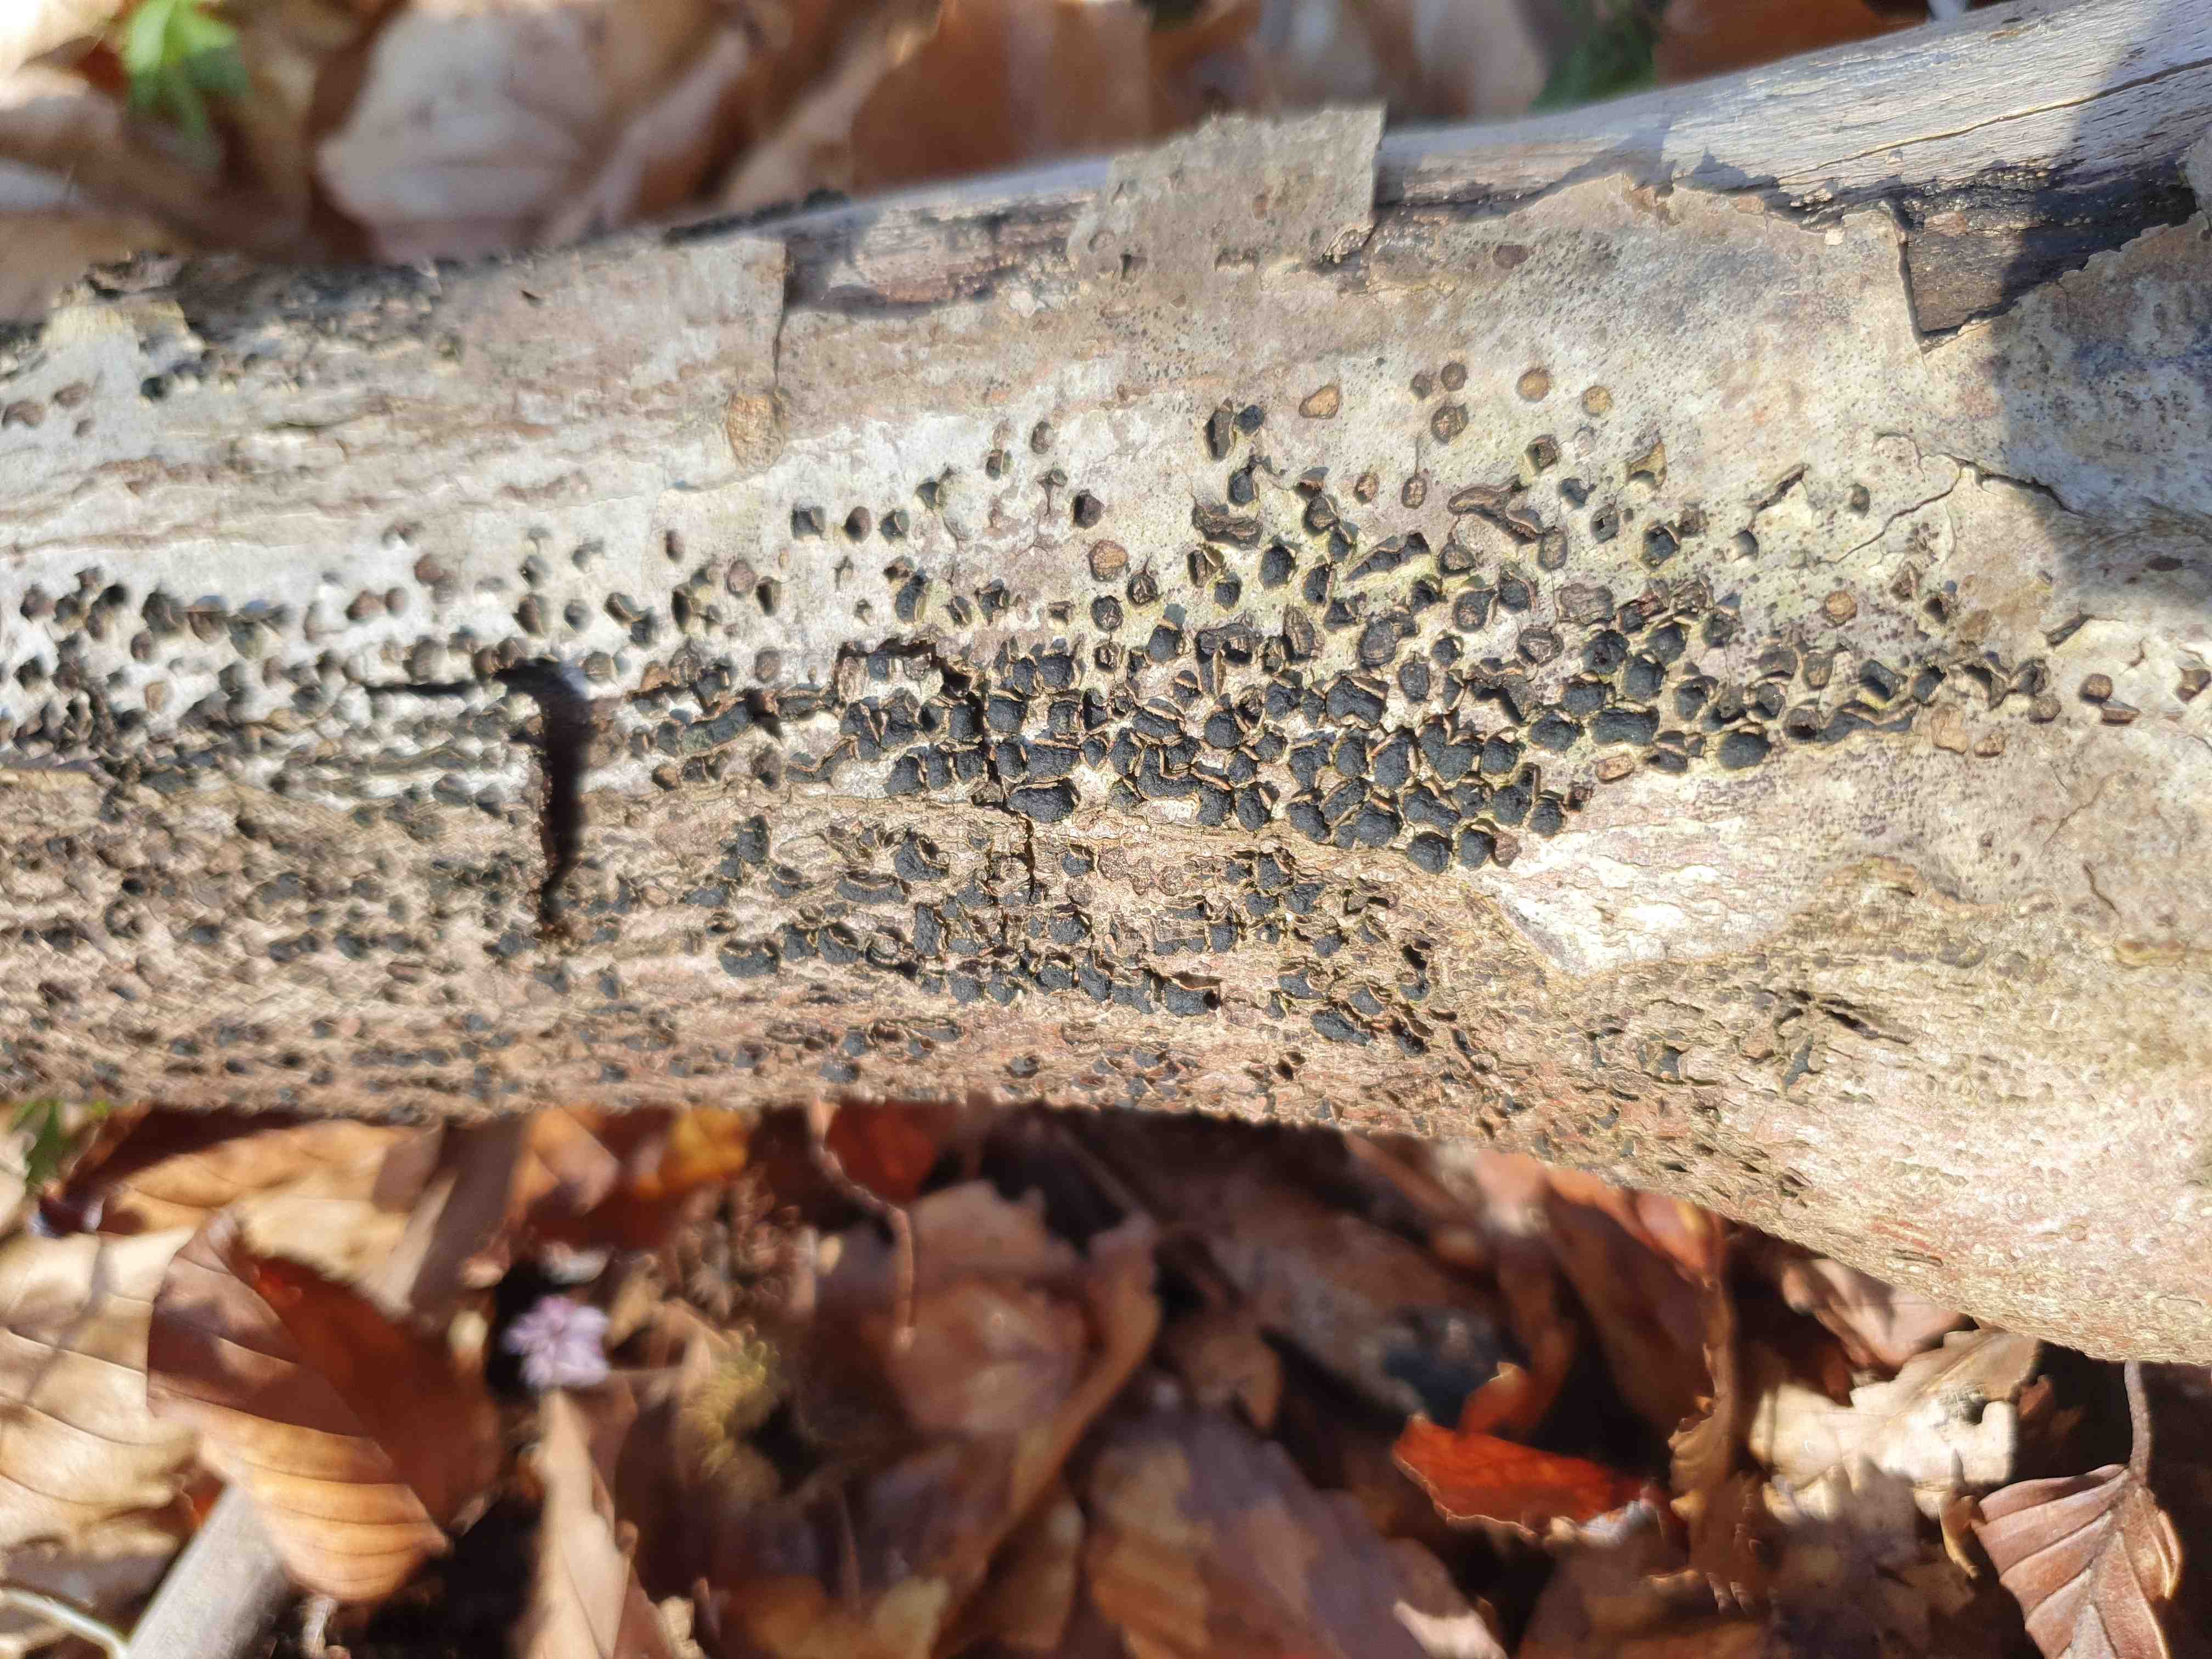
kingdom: Fungi
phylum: Ascomycota
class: Sordariomycetes
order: Xylariales
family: Diatrypaceae
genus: Diatrype
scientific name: Diatrype disciformis
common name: kant-kulskorpe
